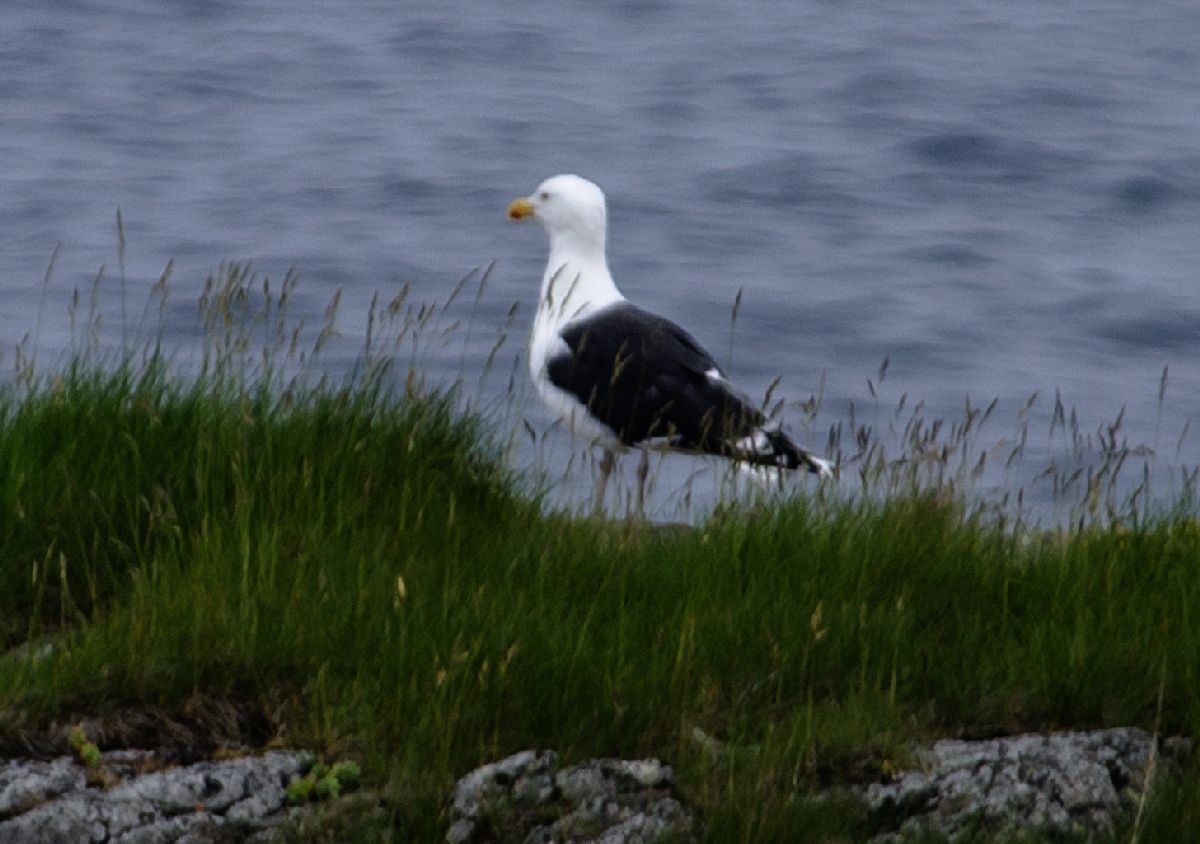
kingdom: Animalia
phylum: Chordata
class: Aves
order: Charadriiformes
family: Laridae
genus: Larus
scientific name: Larus marinus
